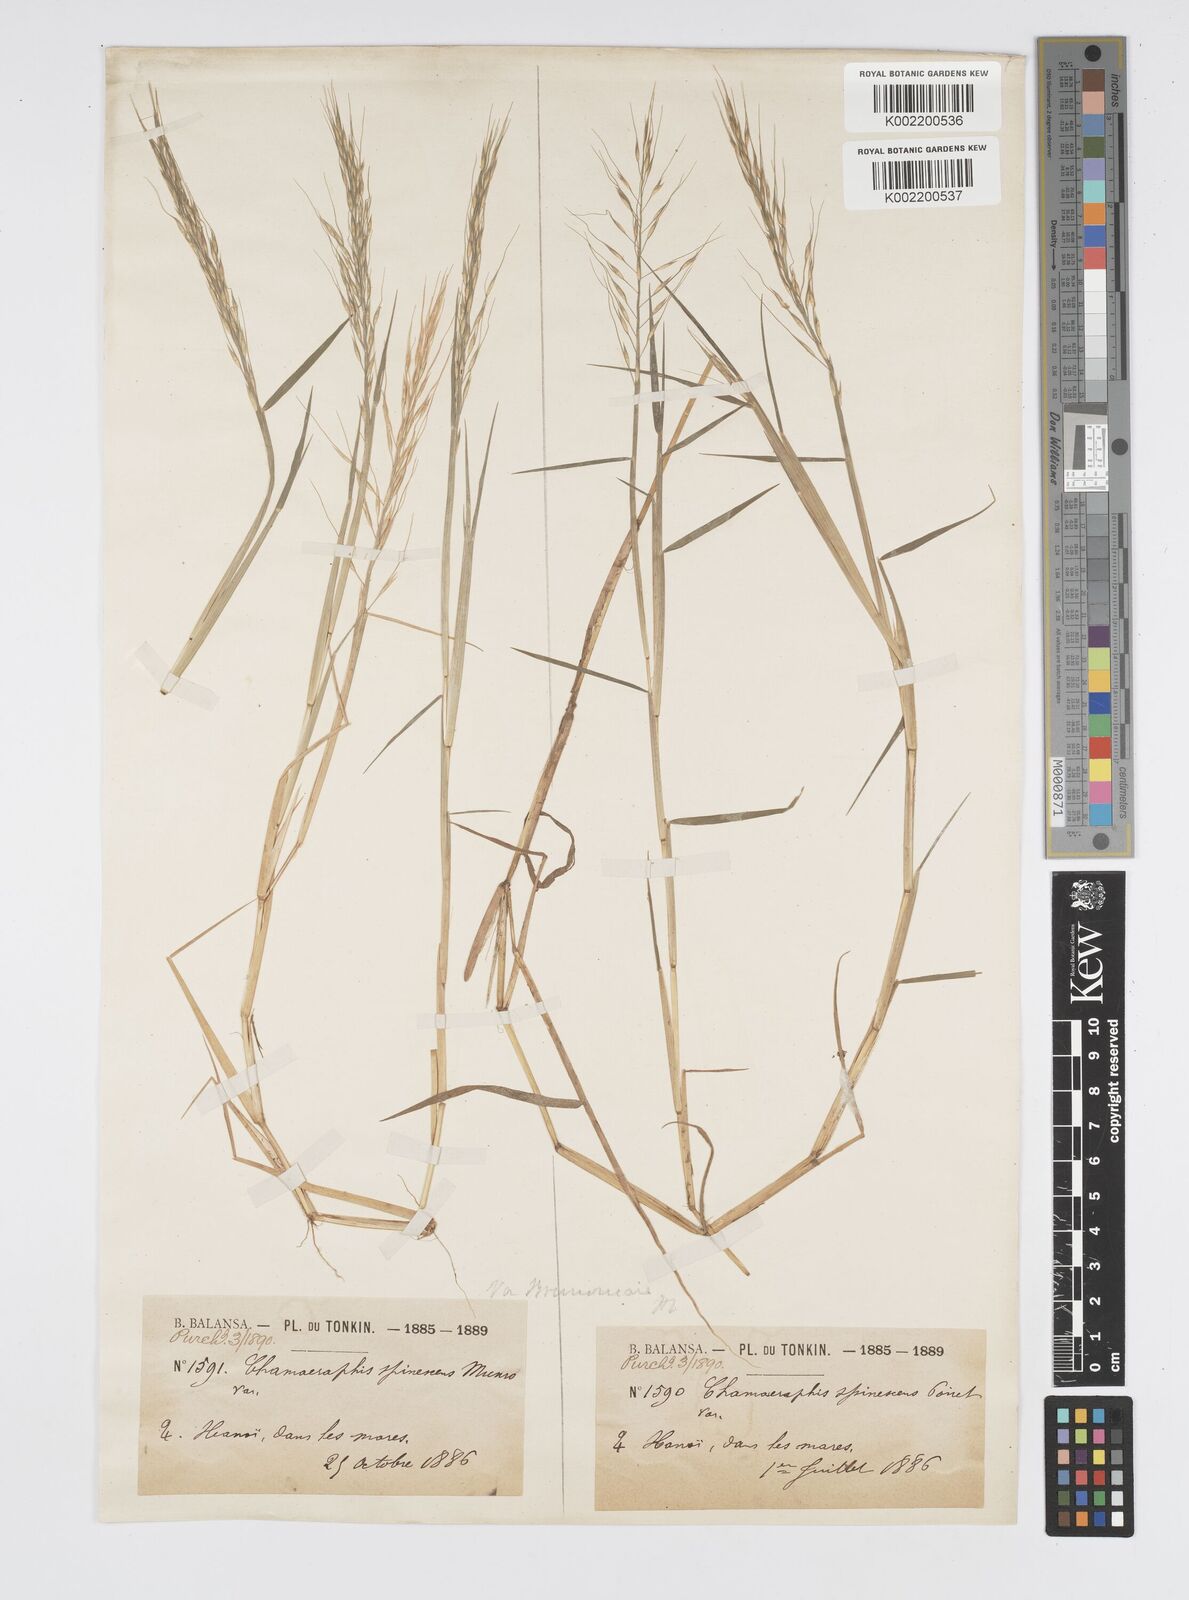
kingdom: Plantae
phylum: Tracheophyta
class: Liliopsida
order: Poales
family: Poaceae
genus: Pseudoraphis
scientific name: Pseudoraphis brunoniana
